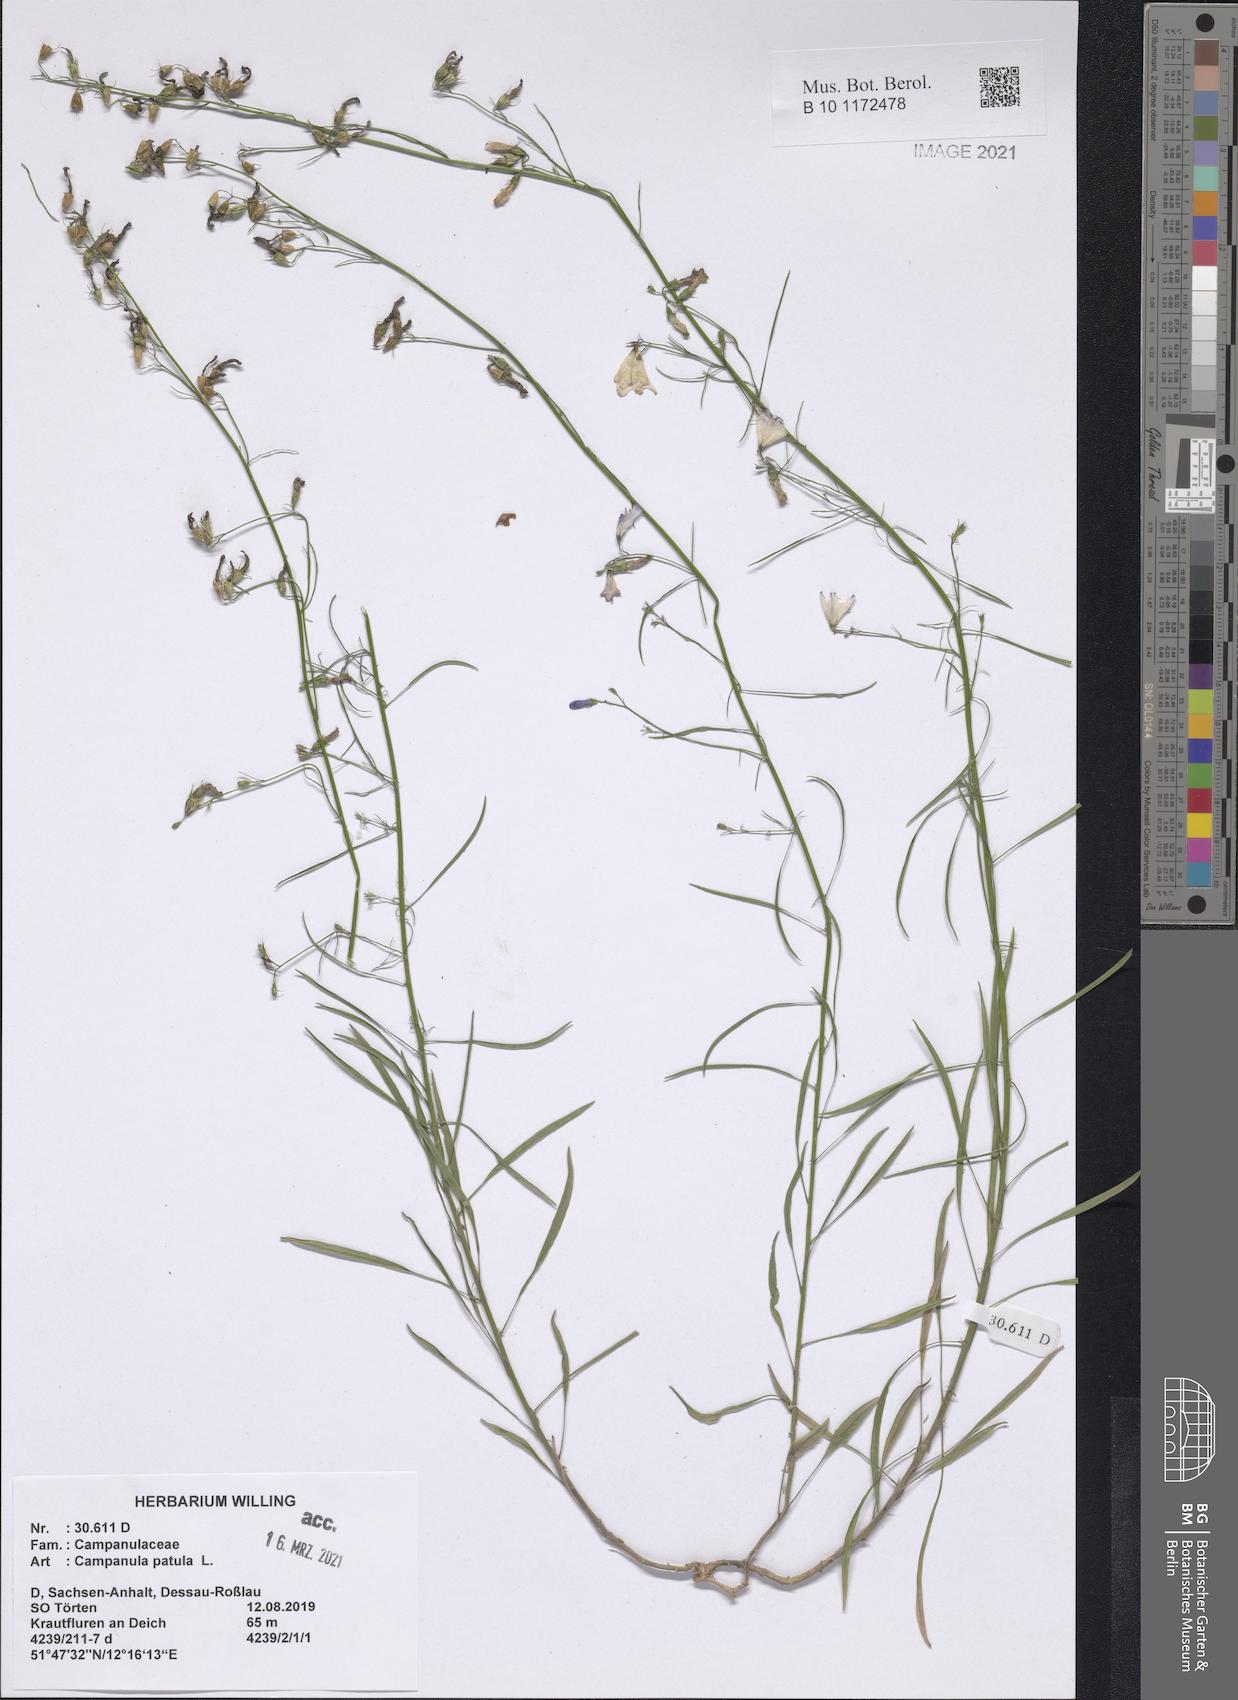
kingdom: Plantae
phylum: Tracheophyta
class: Magnoliopsida
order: Asterales
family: Campanulaceae
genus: Campanula
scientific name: Campanula patula
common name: Spreading bellflower
